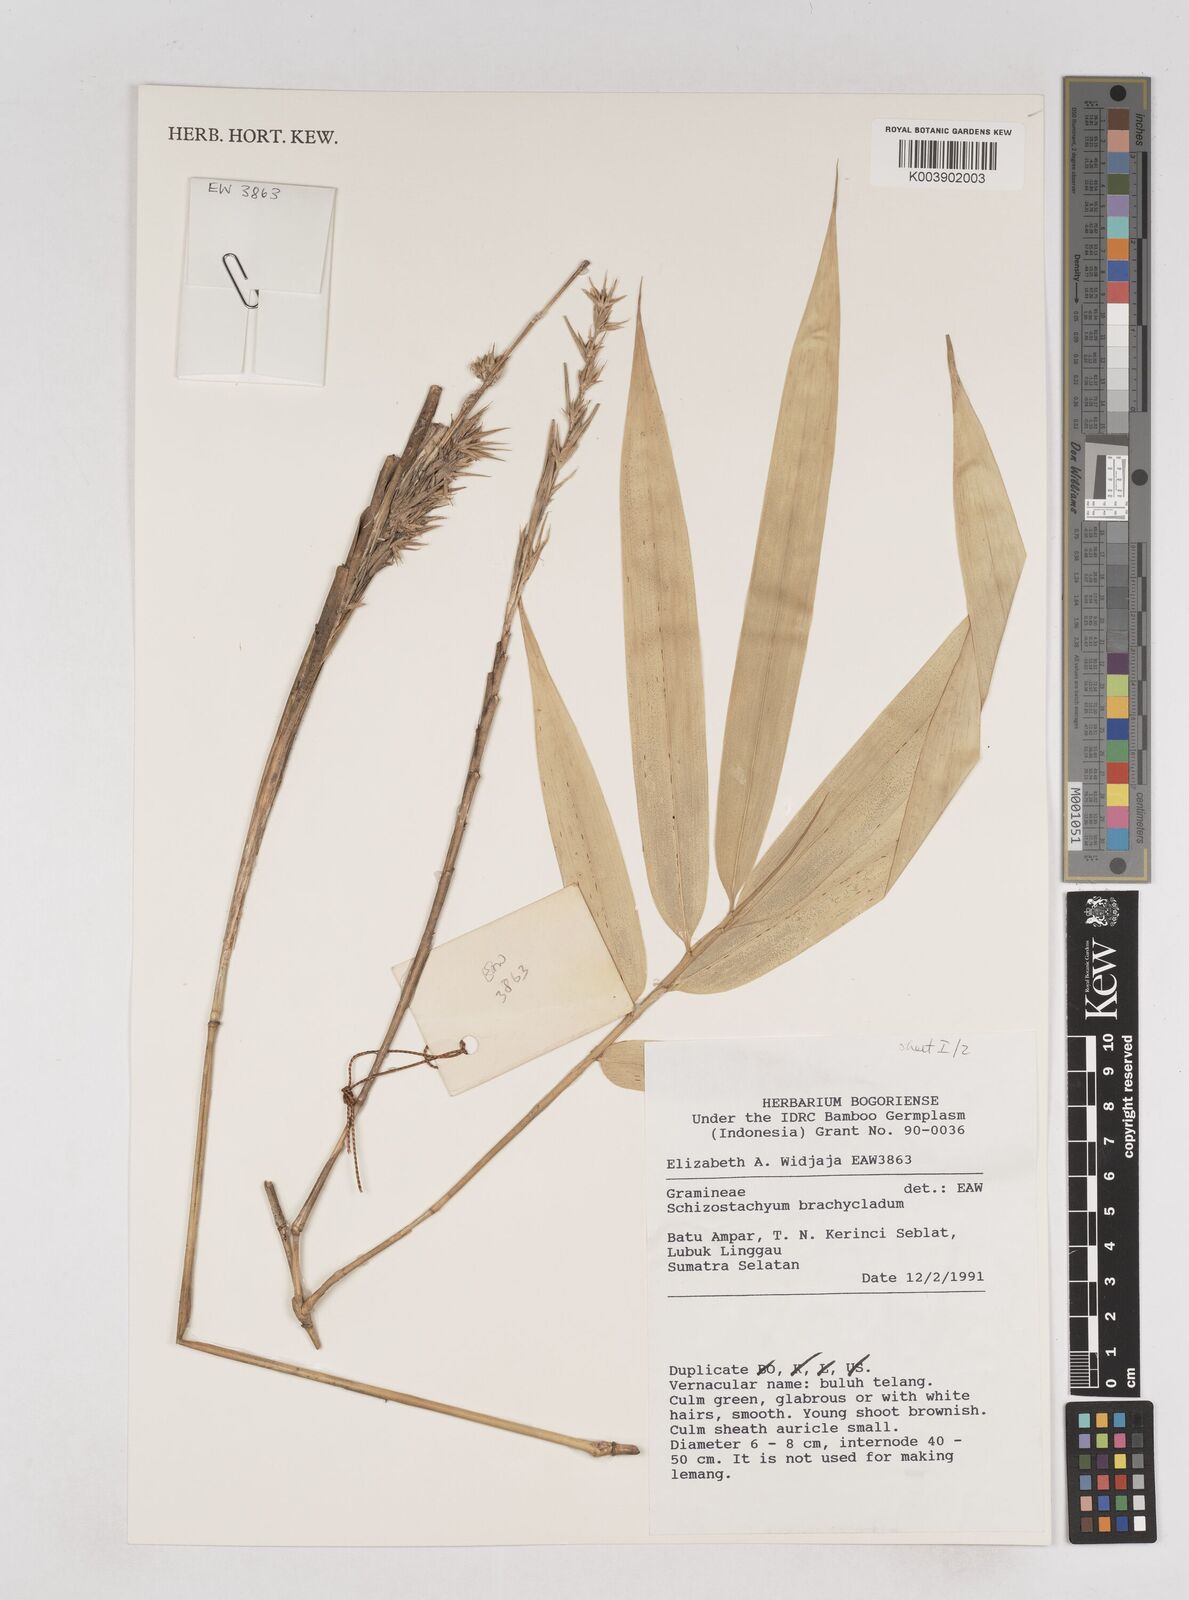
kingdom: Plantae
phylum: Tracheophyta
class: Liliopsida
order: Poales
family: Poaceae
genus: Schizostachyum
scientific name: Schizostachyum brachycladum
